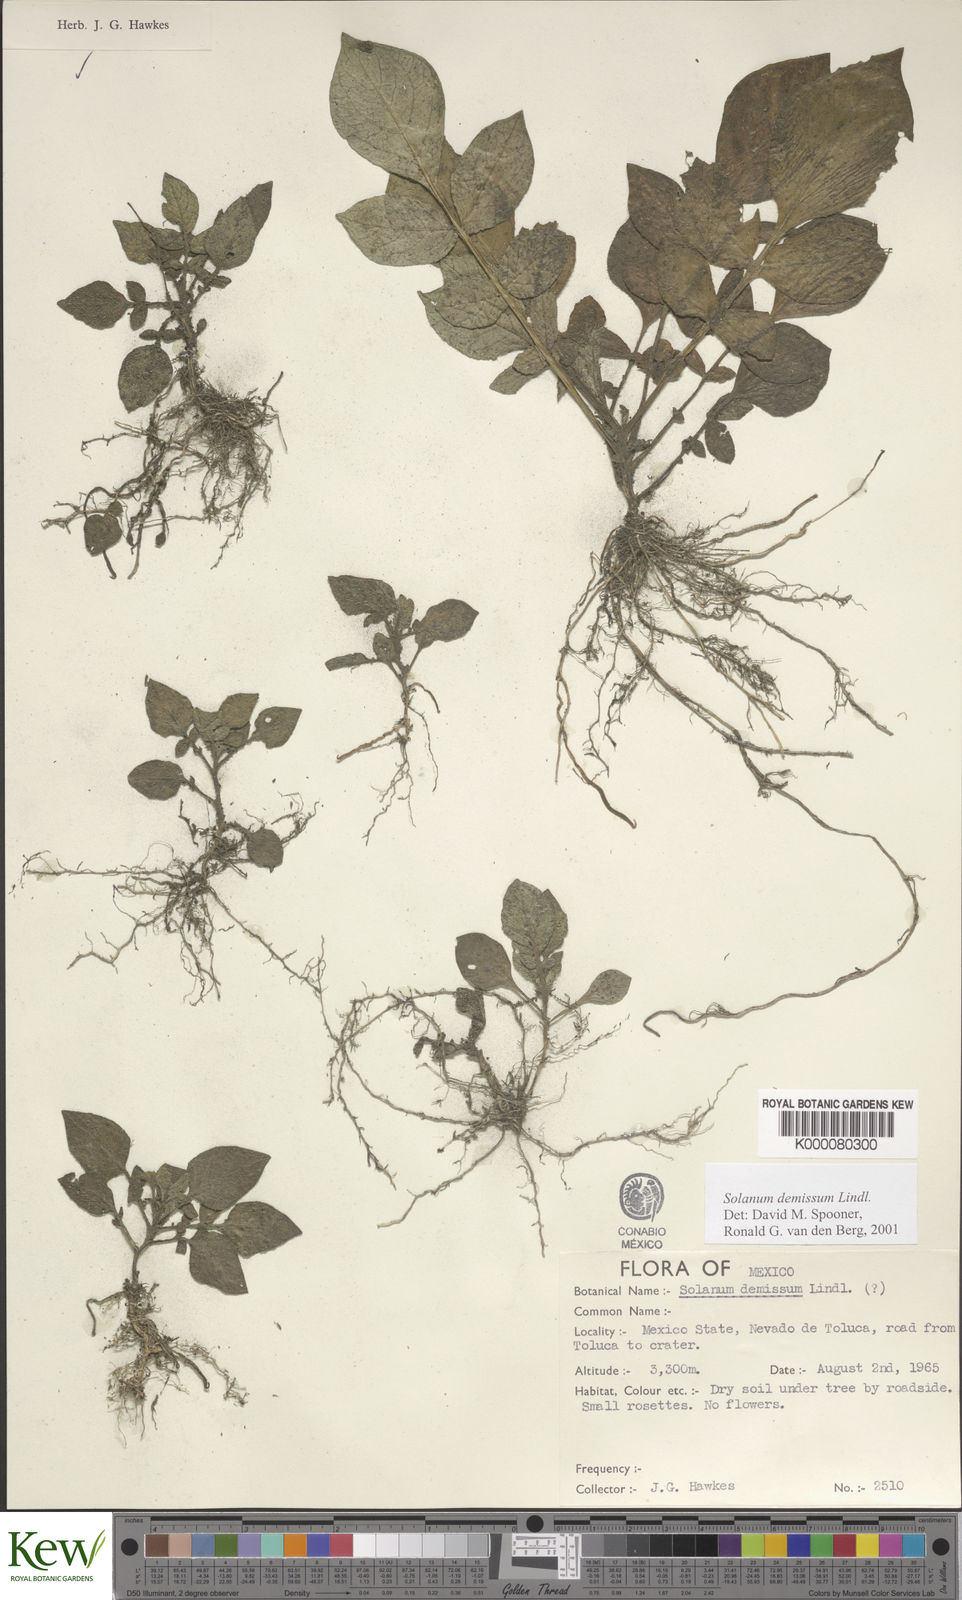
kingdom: Plantae
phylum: Tracheophyta
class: Magnoliopsida
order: Solanales
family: Solanaceae
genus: Solanum
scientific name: Solanum demissum
